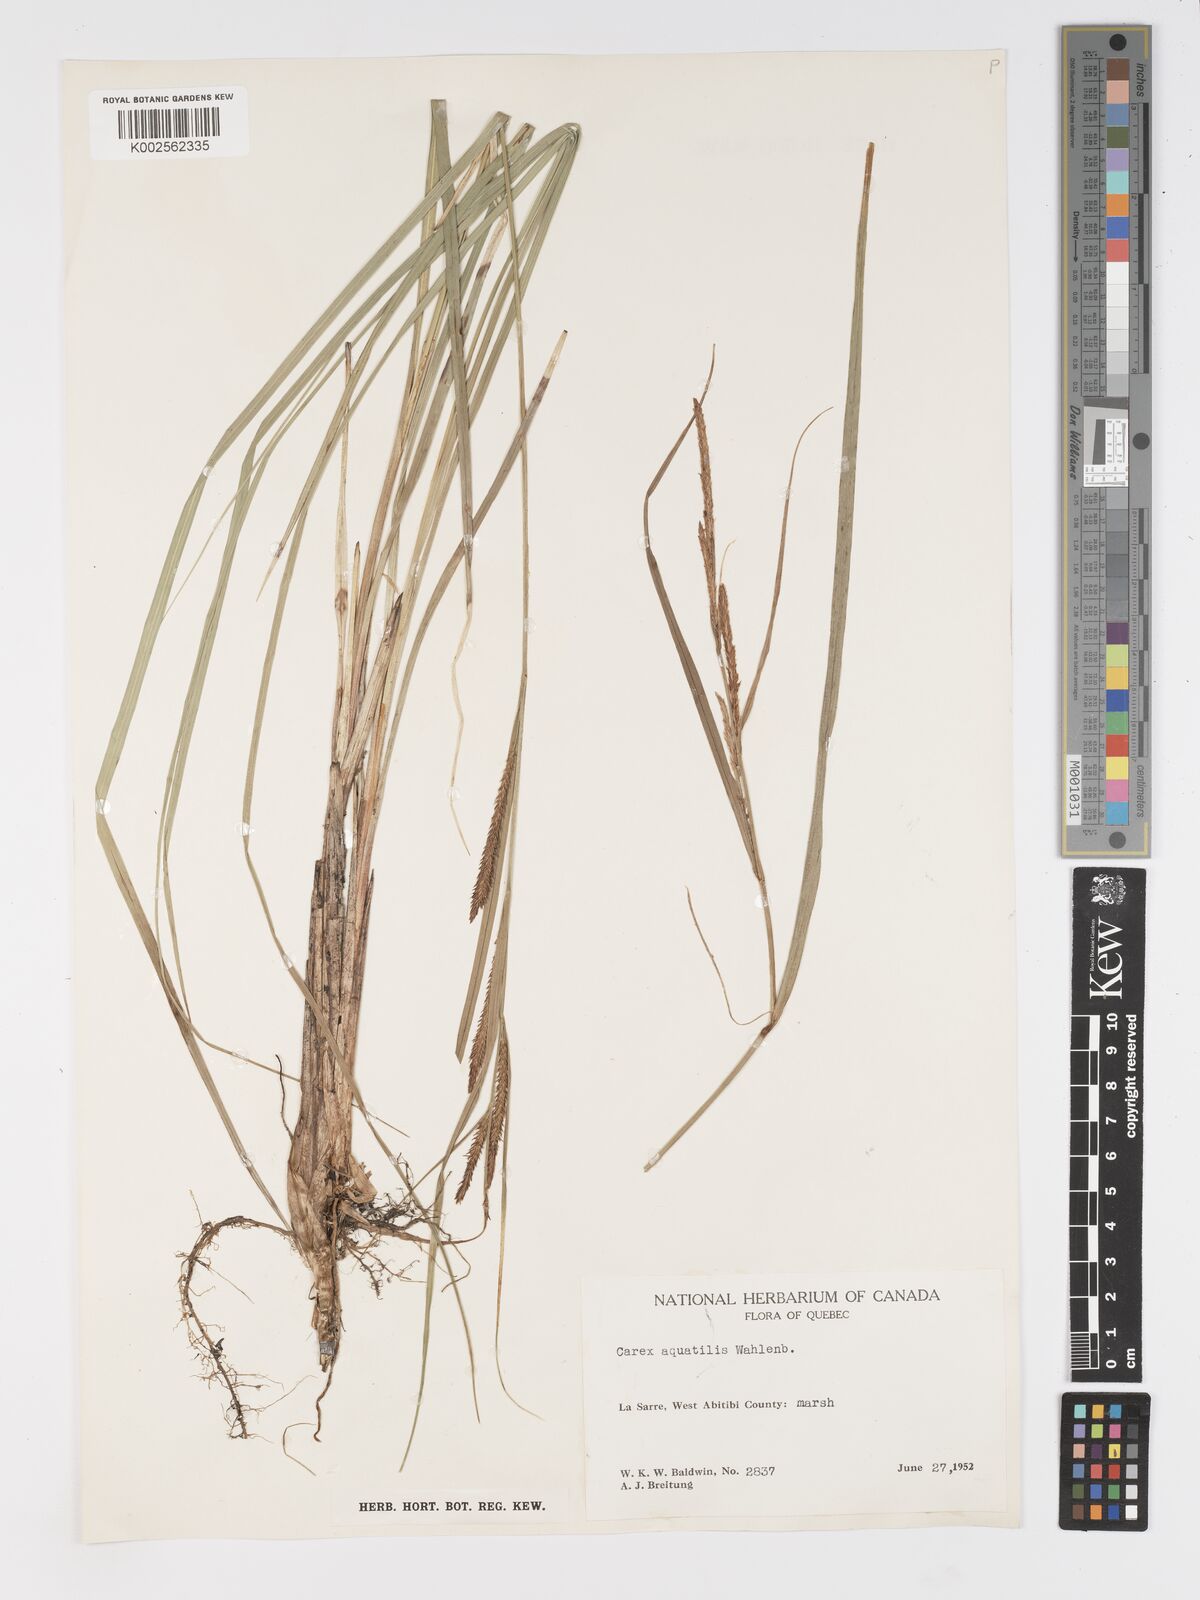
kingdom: Plantae
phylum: Tracheophyta
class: Liliopsida
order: Poales
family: Cyperaceae
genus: Carex
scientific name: Carex aquatilis
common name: Water sedge
